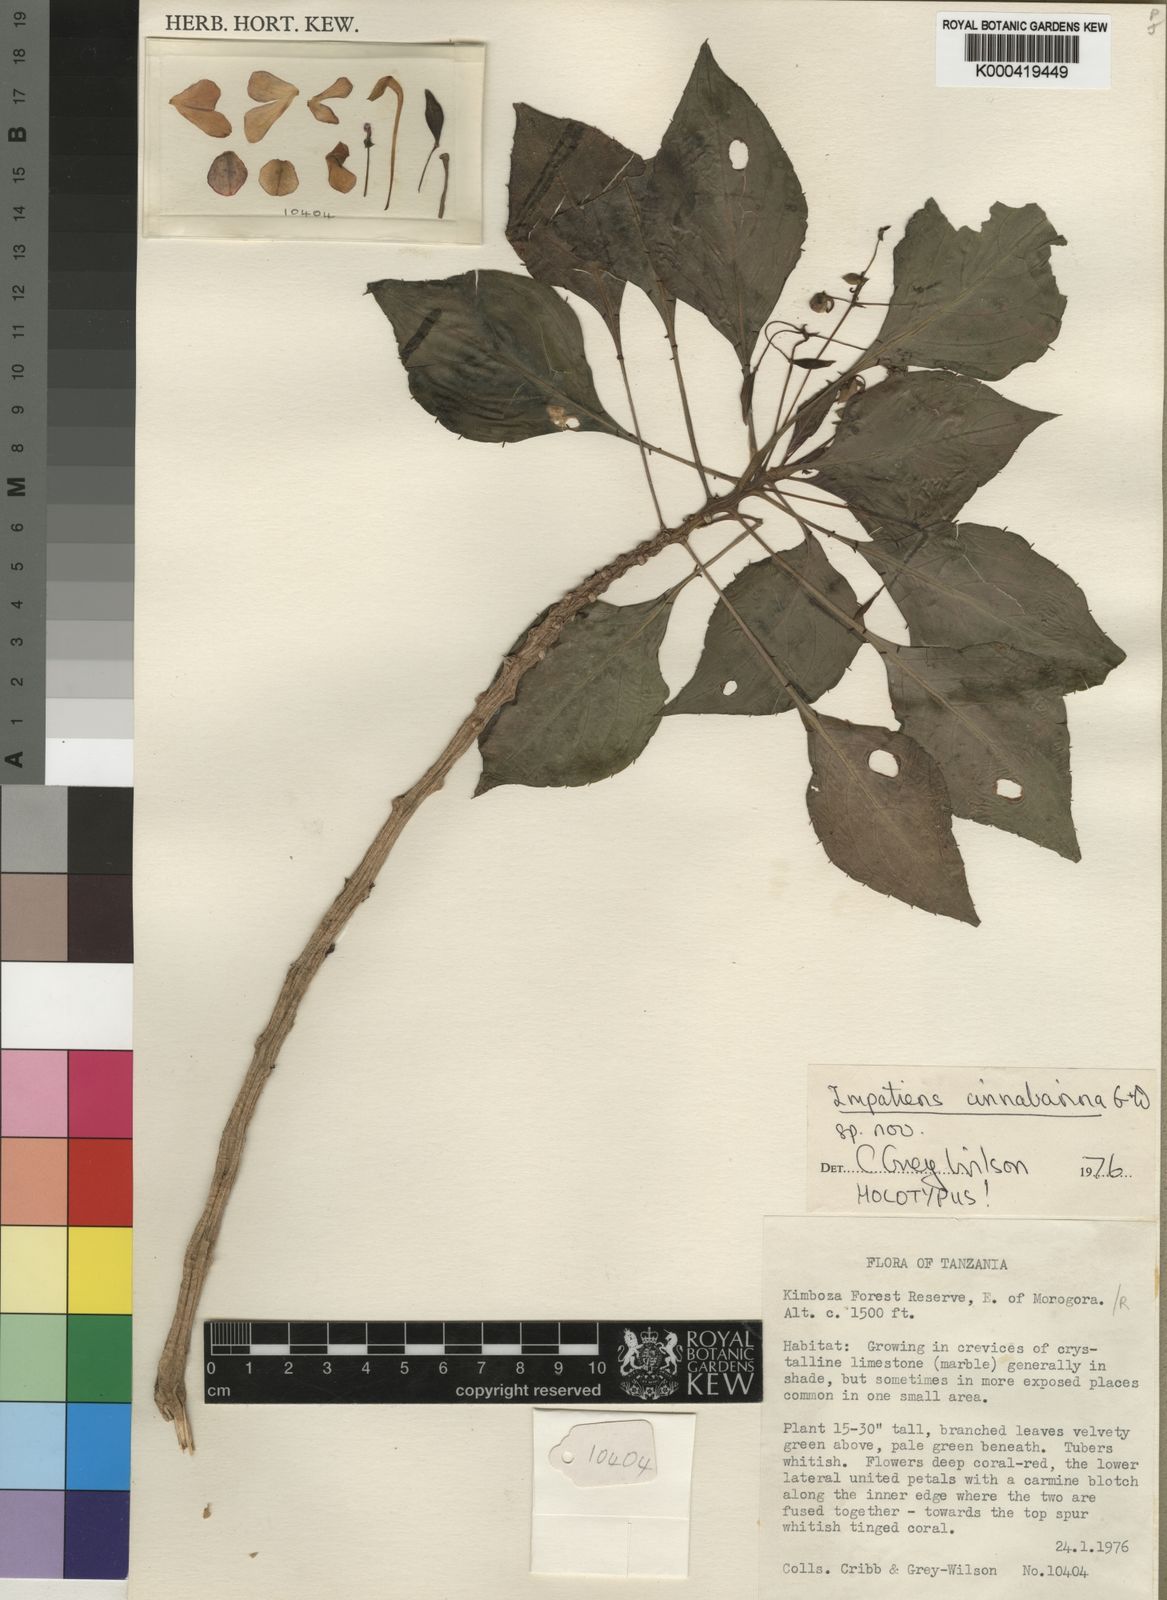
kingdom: Plantae
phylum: Tracheophyta
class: Magnoliopsida
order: Ericales
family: Balsaminaceae
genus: Impatiens
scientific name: Impatiens cinnabarina
